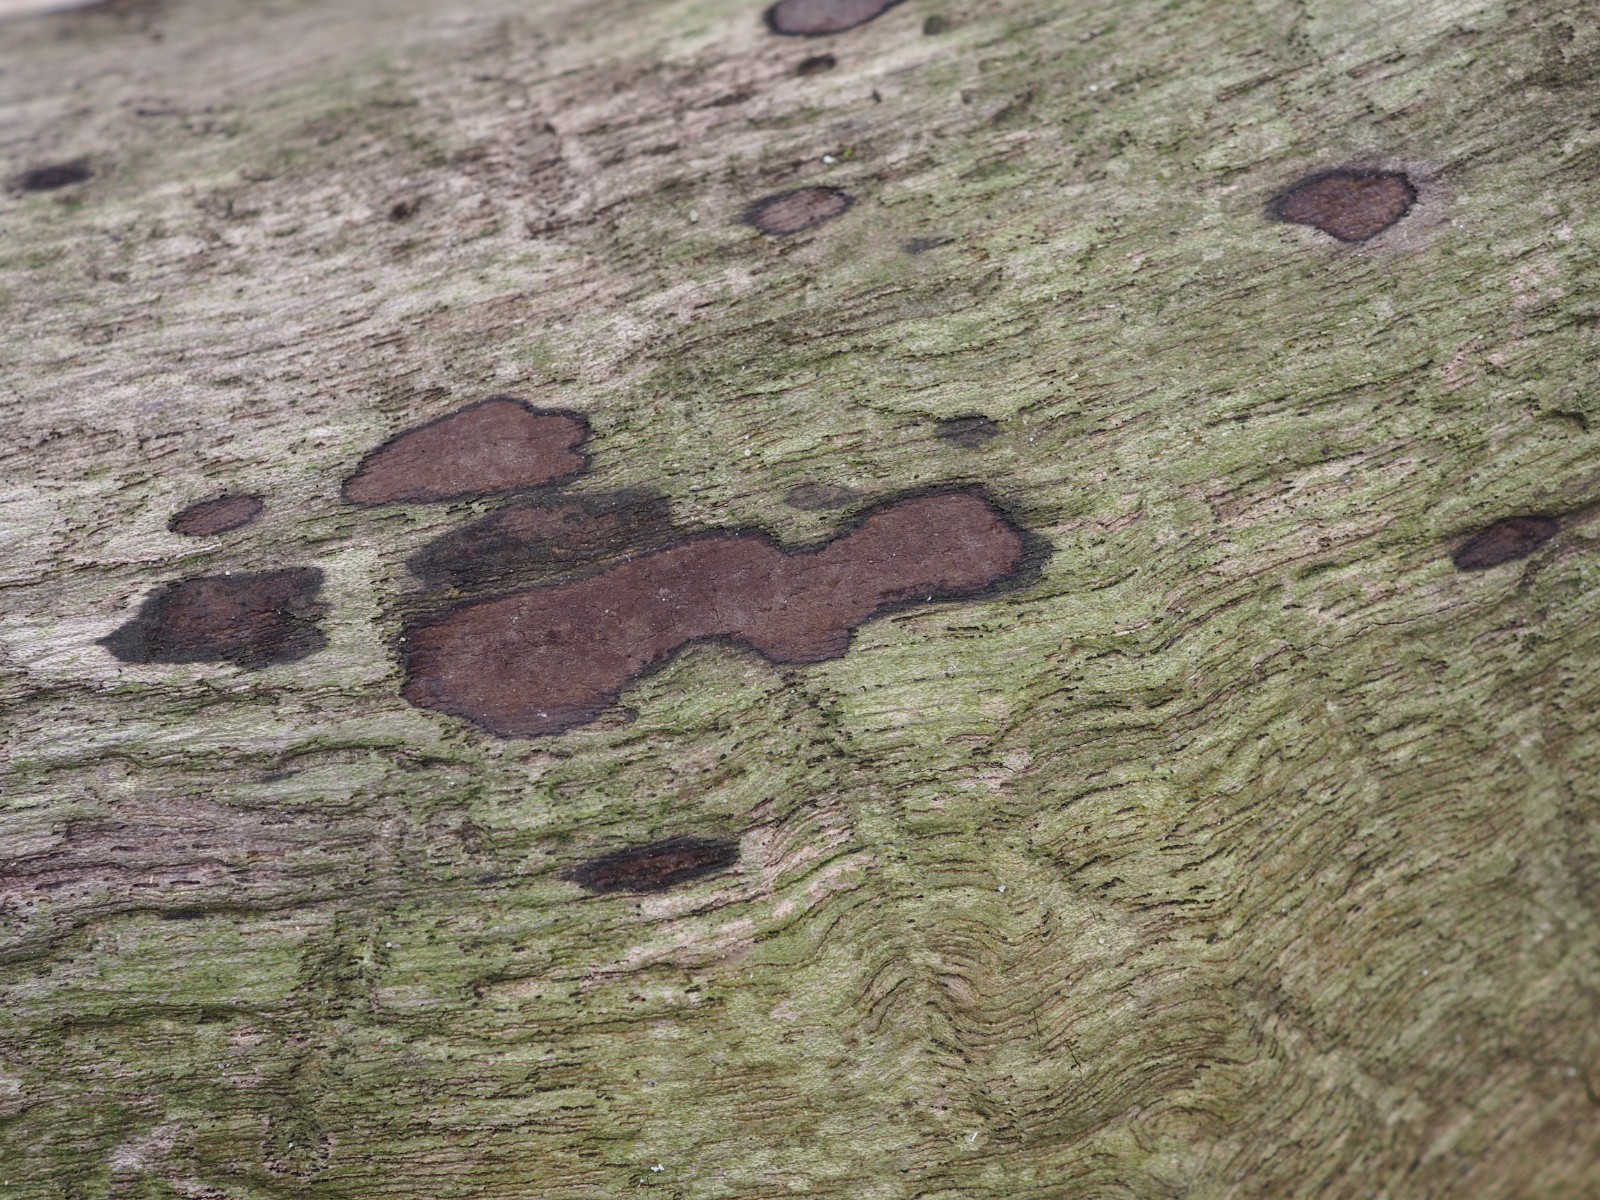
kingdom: Fungi
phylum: Ascomycota
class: Sordariomycetes
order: Xylariales
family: Hypoxylaceae
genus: Hypoxylon
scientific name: Hypoxylon petriniae
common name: nedsænket kulbær
